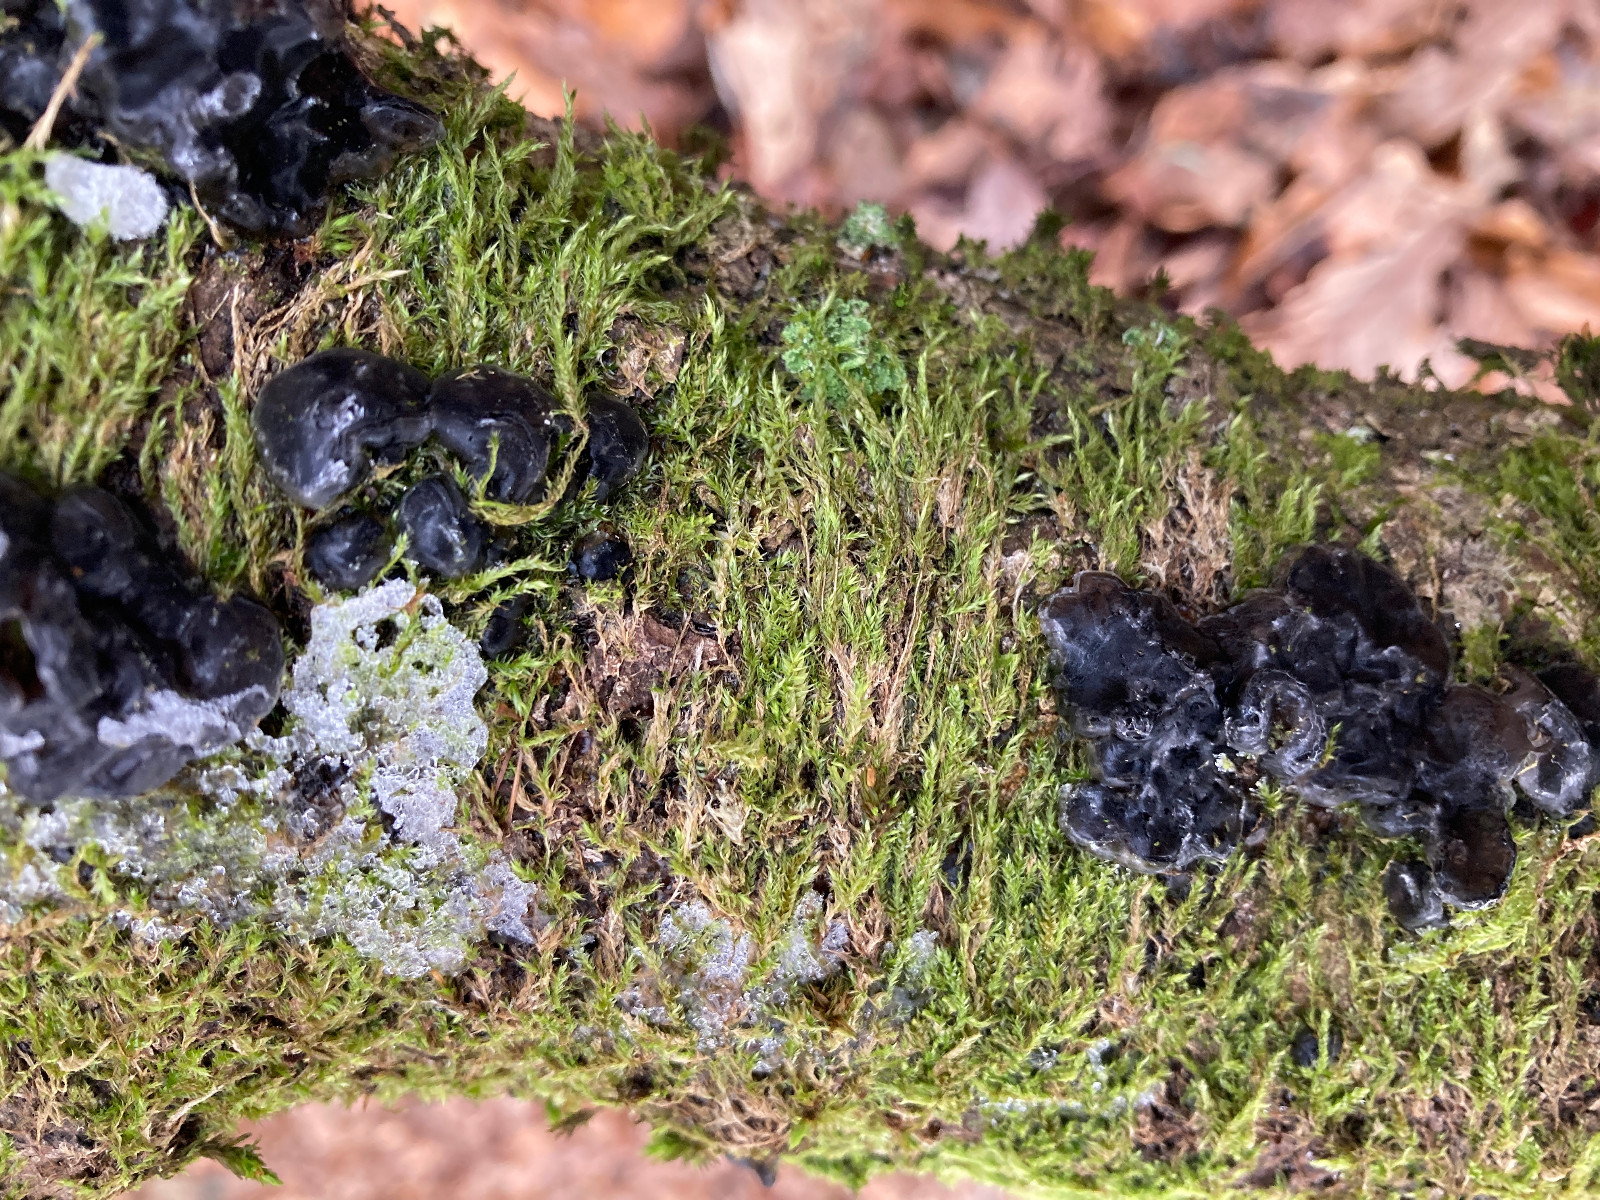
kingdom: Fungi
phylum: Basidiomycota
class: Agaricomycetes
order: Auriculariales
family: Auriculariaceae
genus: Exidia
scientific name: Exidia nigricans
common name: almindelig bævretop
